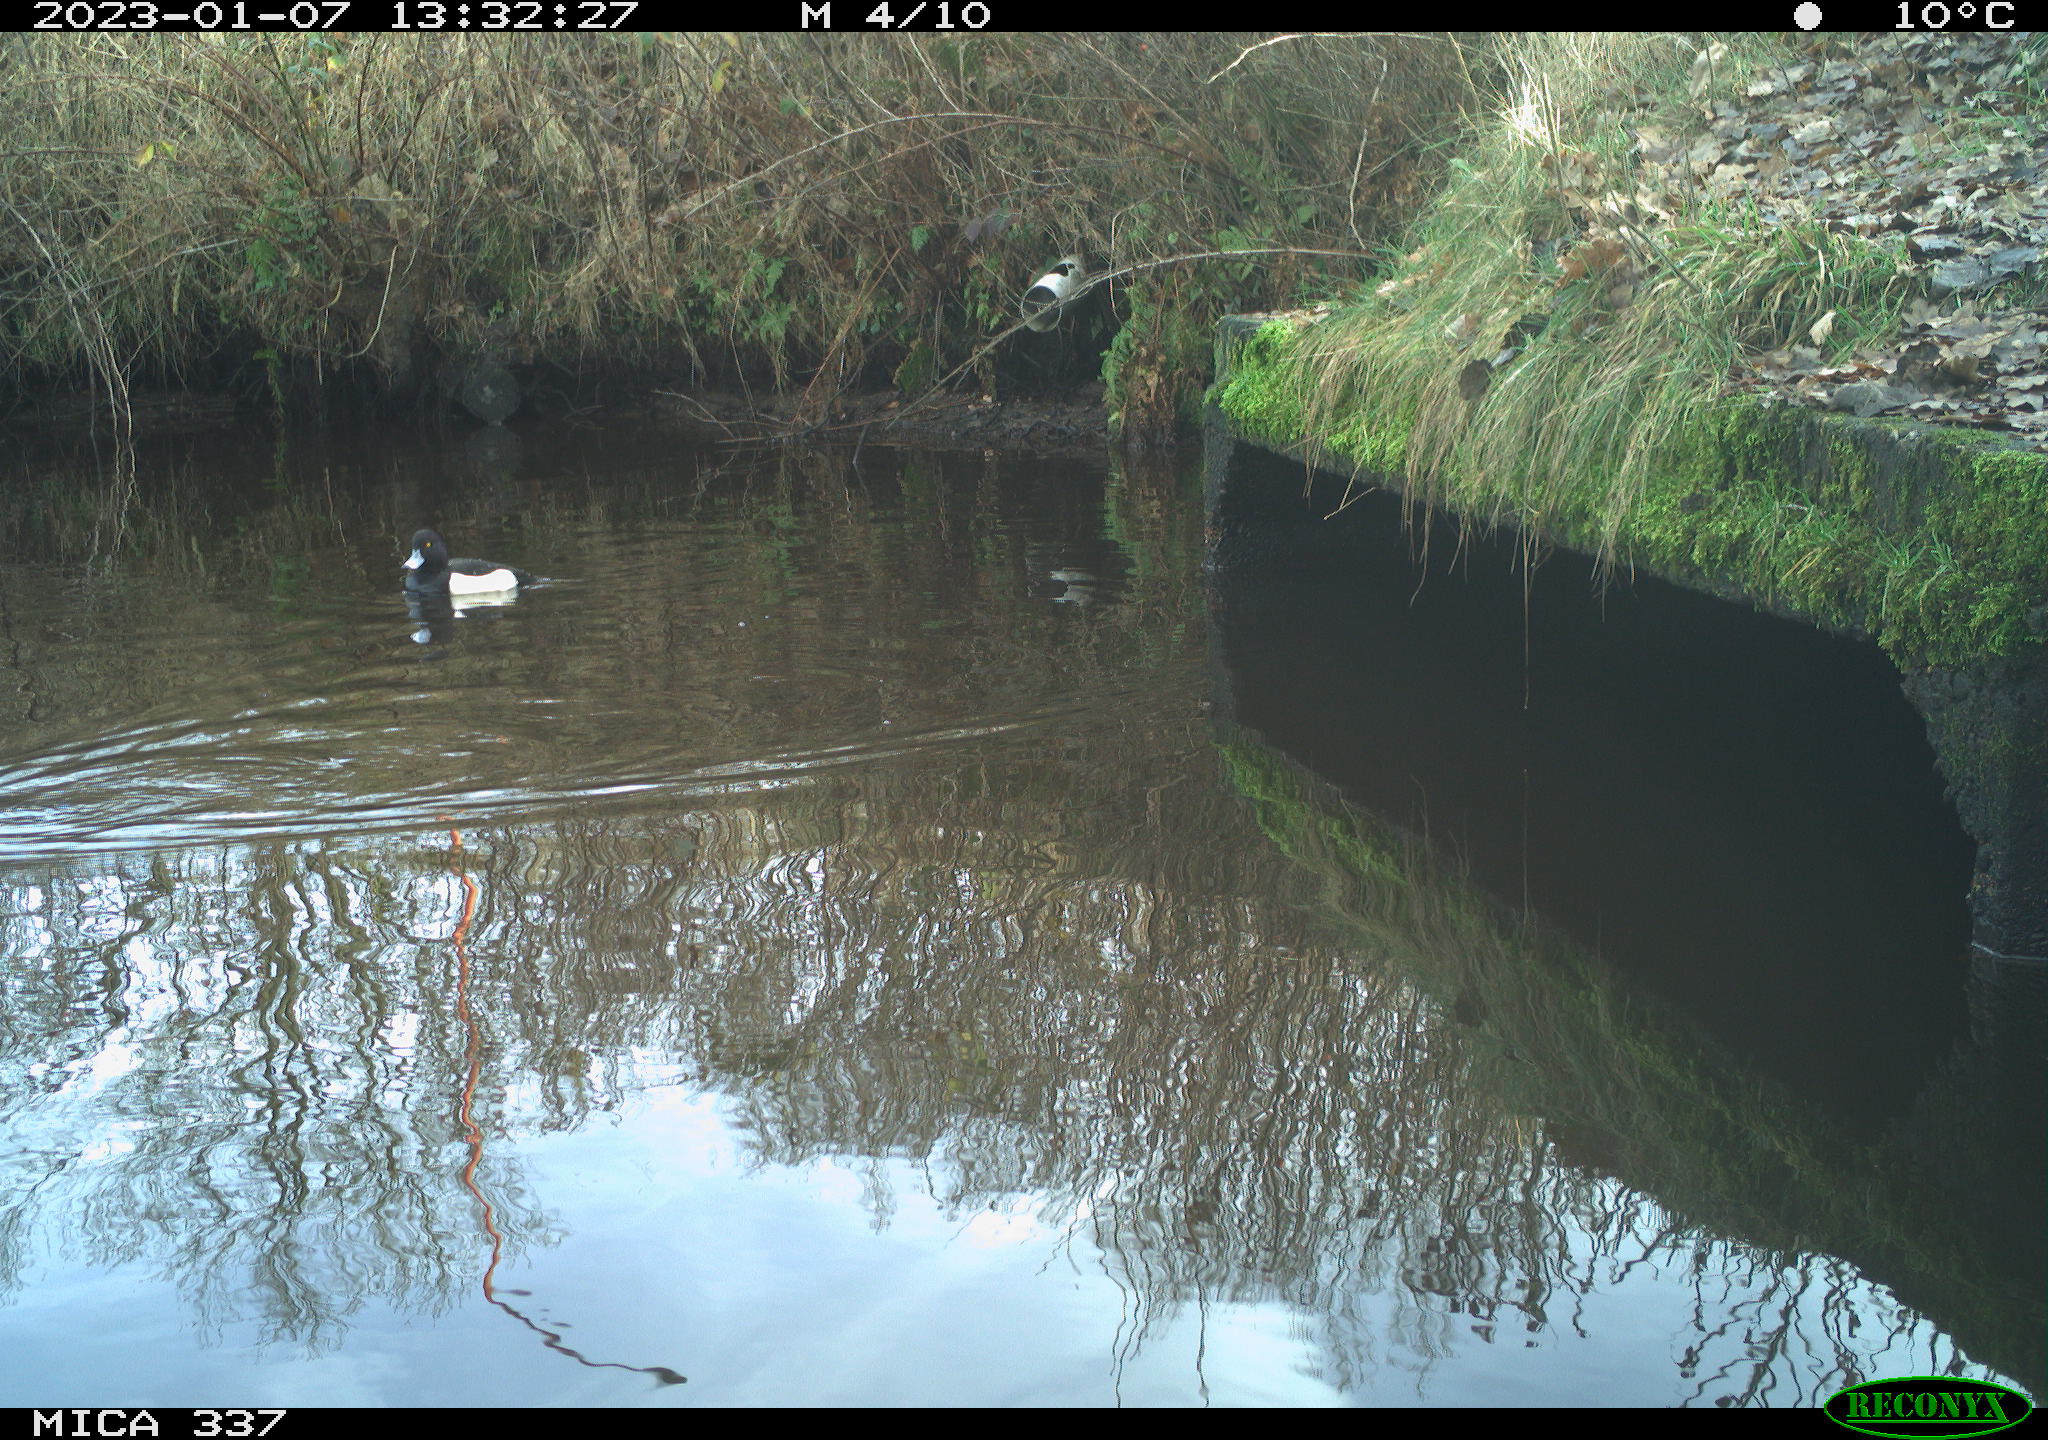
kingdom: Animalia
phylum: Chordata
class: Aves
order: Anseriformes
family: Anatidae
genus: Anas
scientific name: Anas
